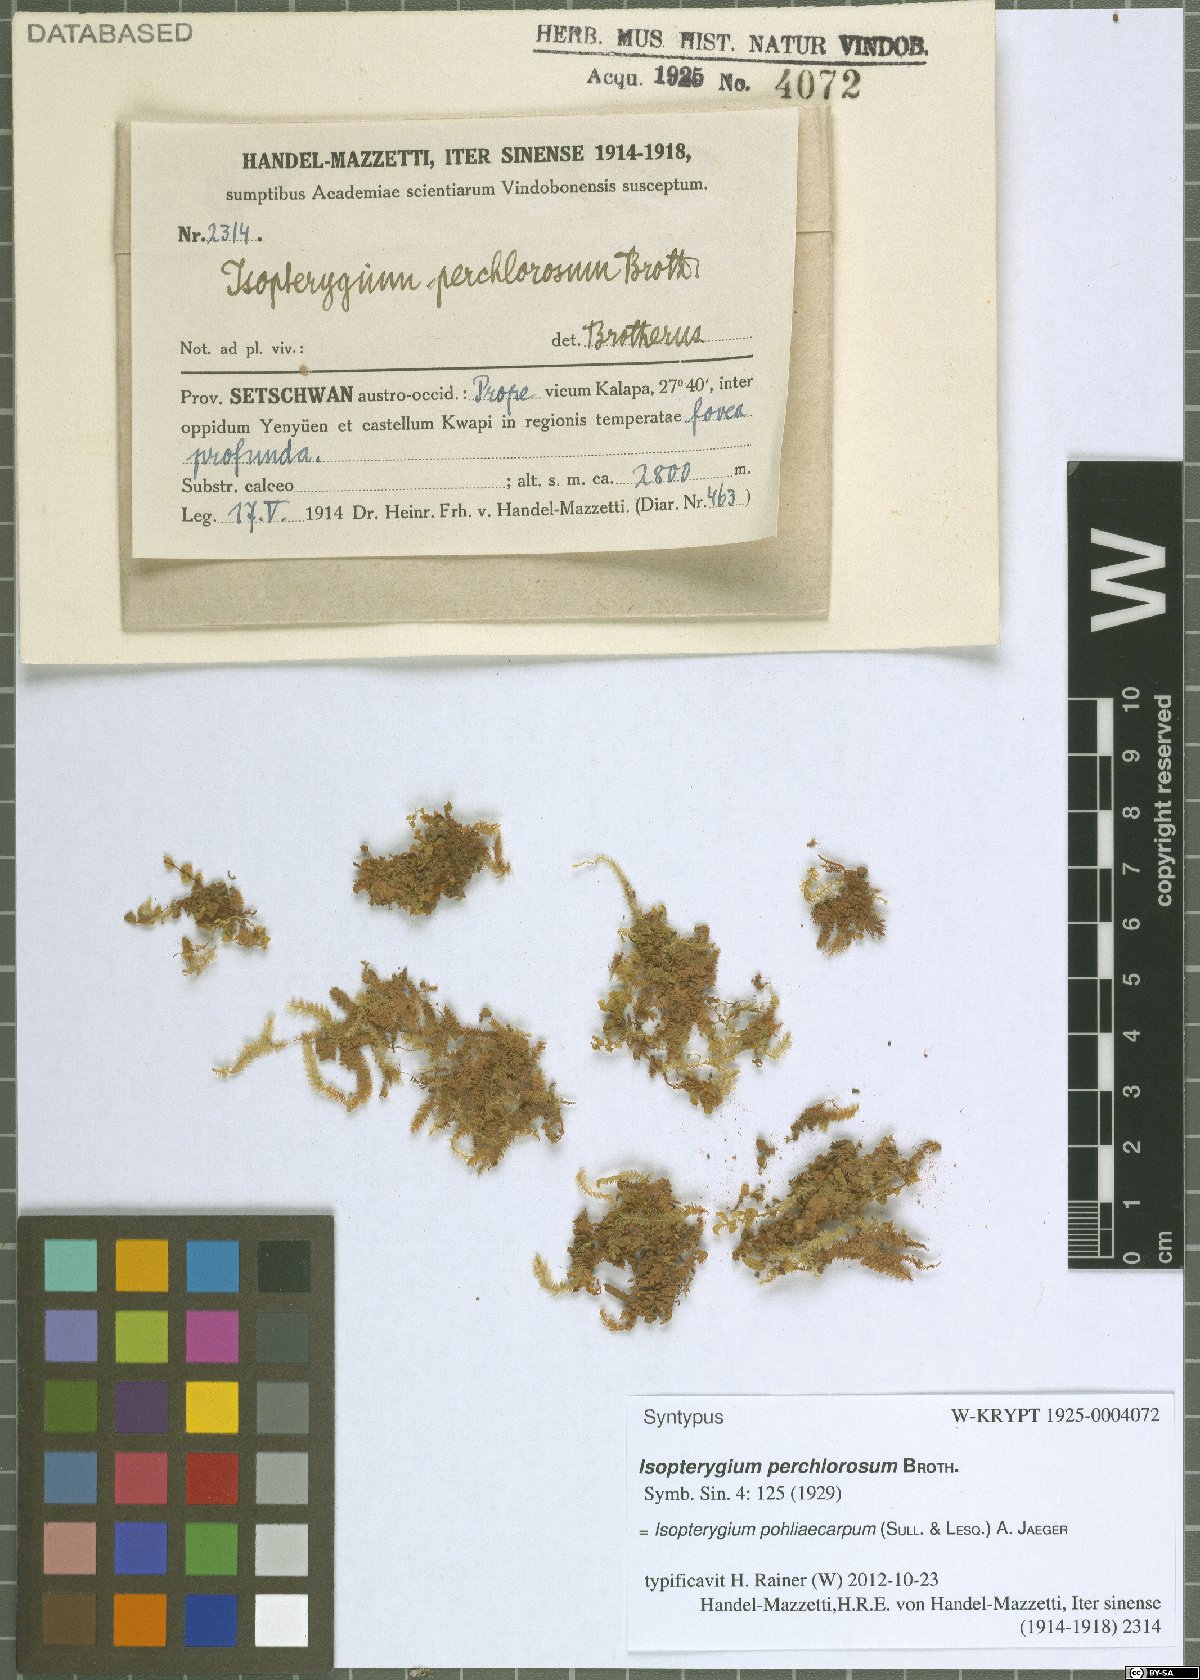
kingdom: Plantae
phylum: Bryophyta
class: Bryopsida
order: Hypnales
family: Plagiotheciaceae
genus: Pseudotaxiphyllum
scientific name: Pseudotaxiphyllum pohliicarpum
